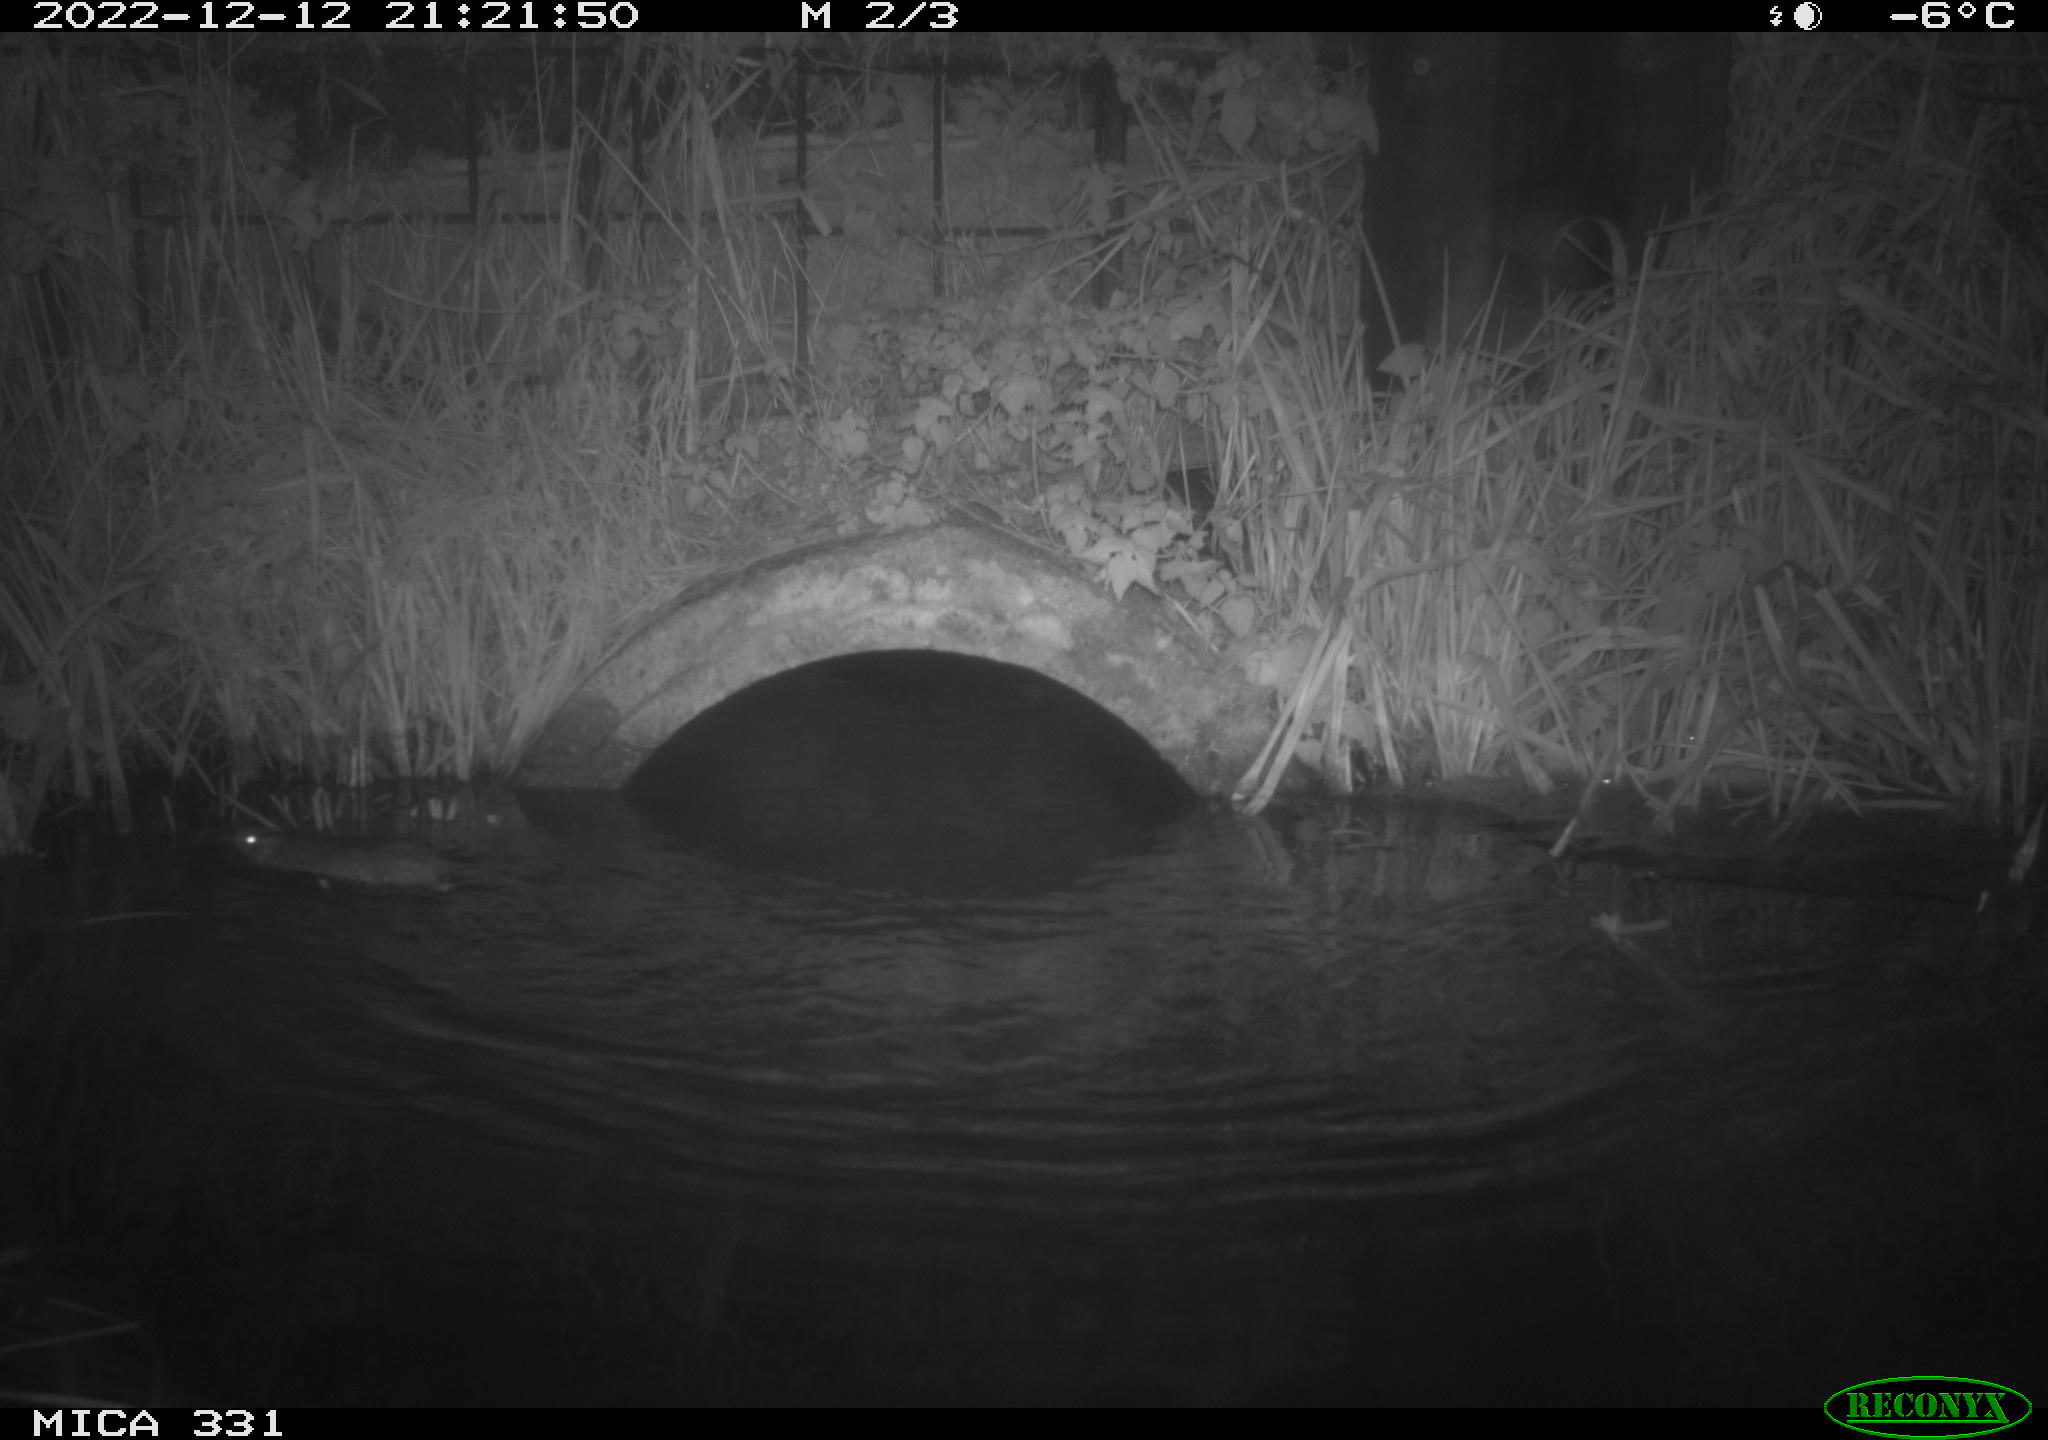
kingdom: Animalia
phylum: Chordata
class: Mammalia
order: Rodentia
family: Muridae
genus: Rattus
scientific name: Rattus norvegicus
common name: Brown rat
